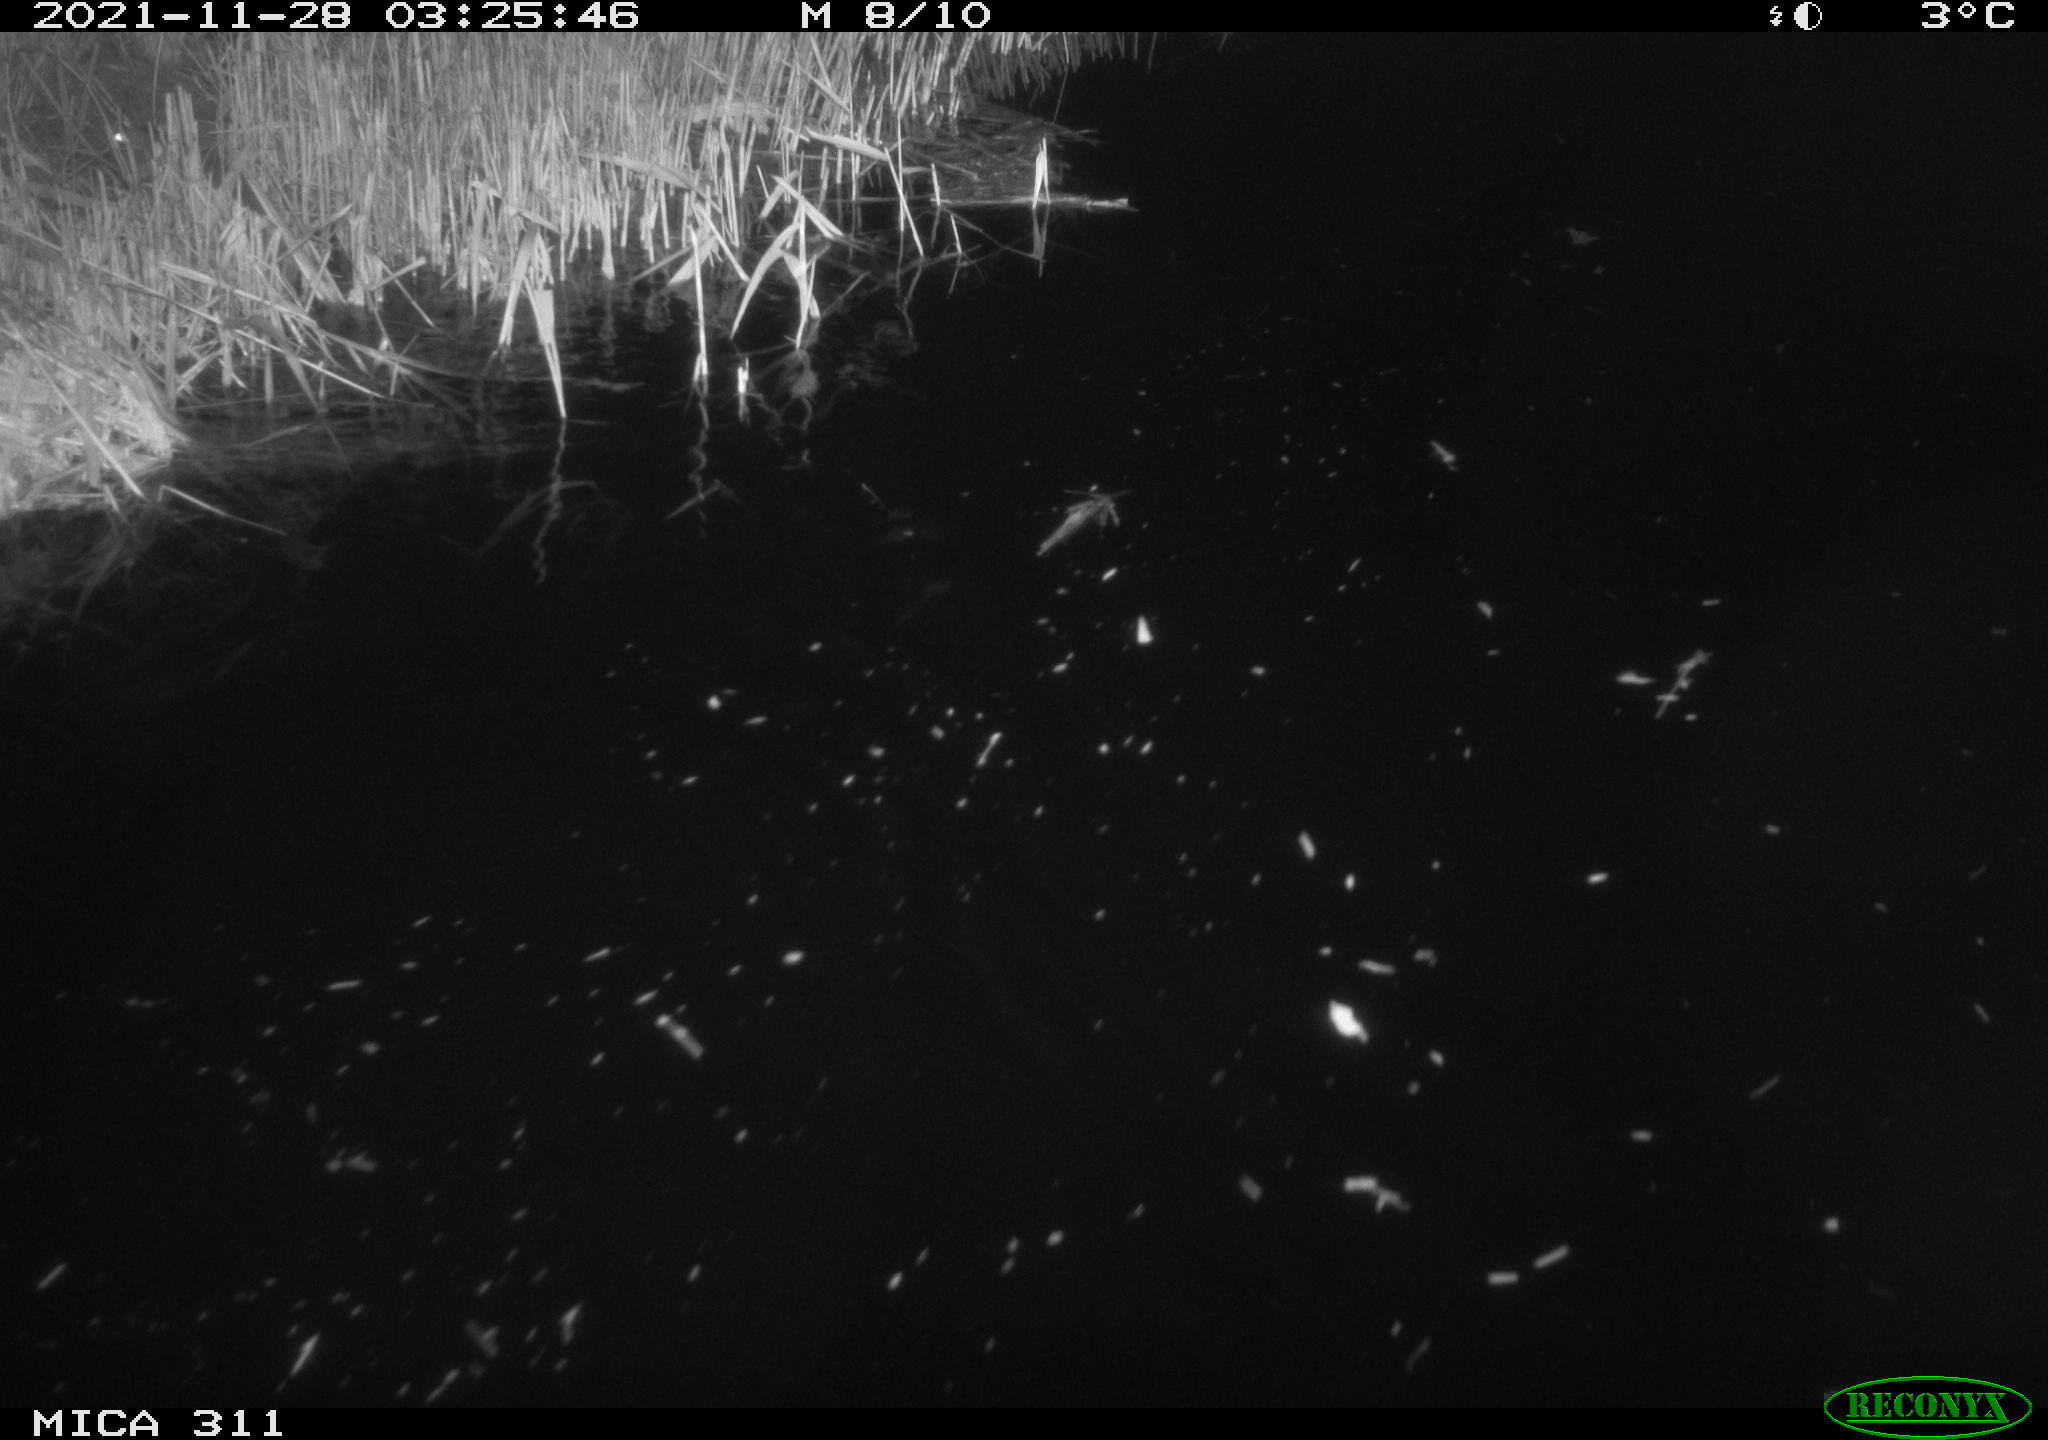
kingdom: Animalia
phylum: Chordata
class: Mammalia
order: Rodentia
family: Muridae
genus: Rattus
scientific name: Rattus norvegicus
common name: Brown rat
